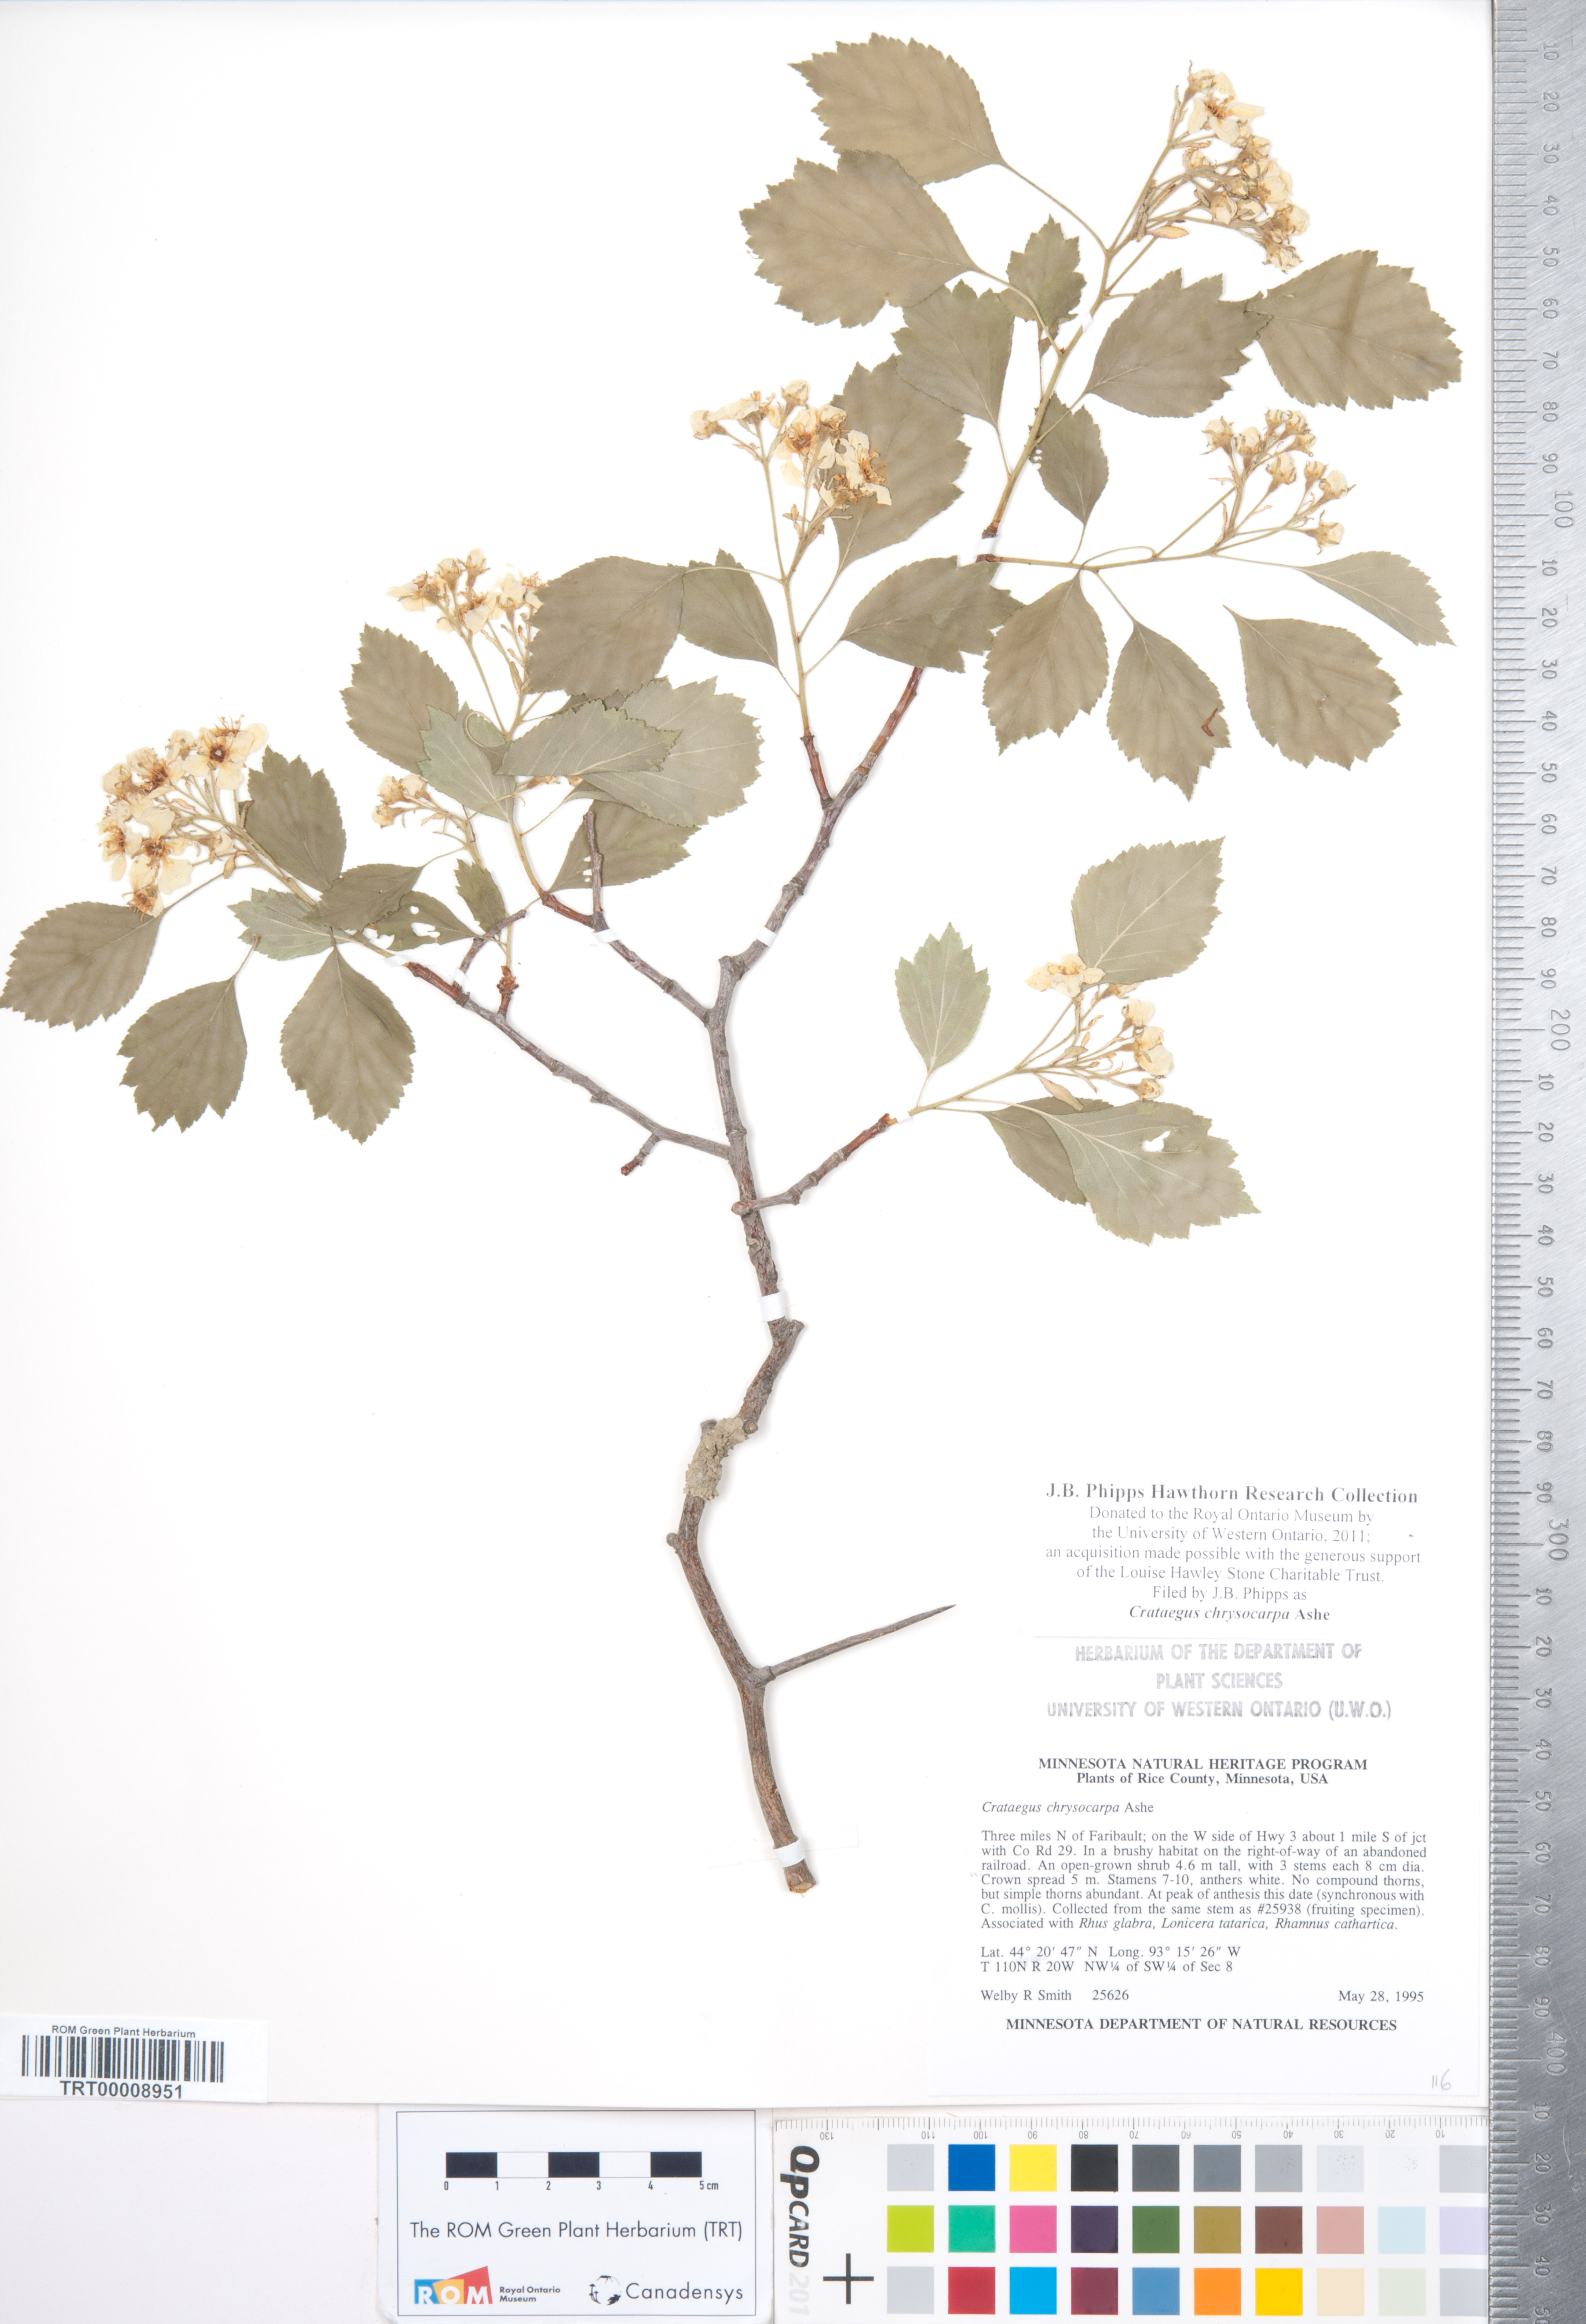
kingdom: Plantae
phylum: Tracheophyta
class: Magnoliopsida
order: Rosales
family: Rosaceae
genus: Crataegus
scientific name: Crataegus chrysocarpa
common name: Fire-berry hawthorn
